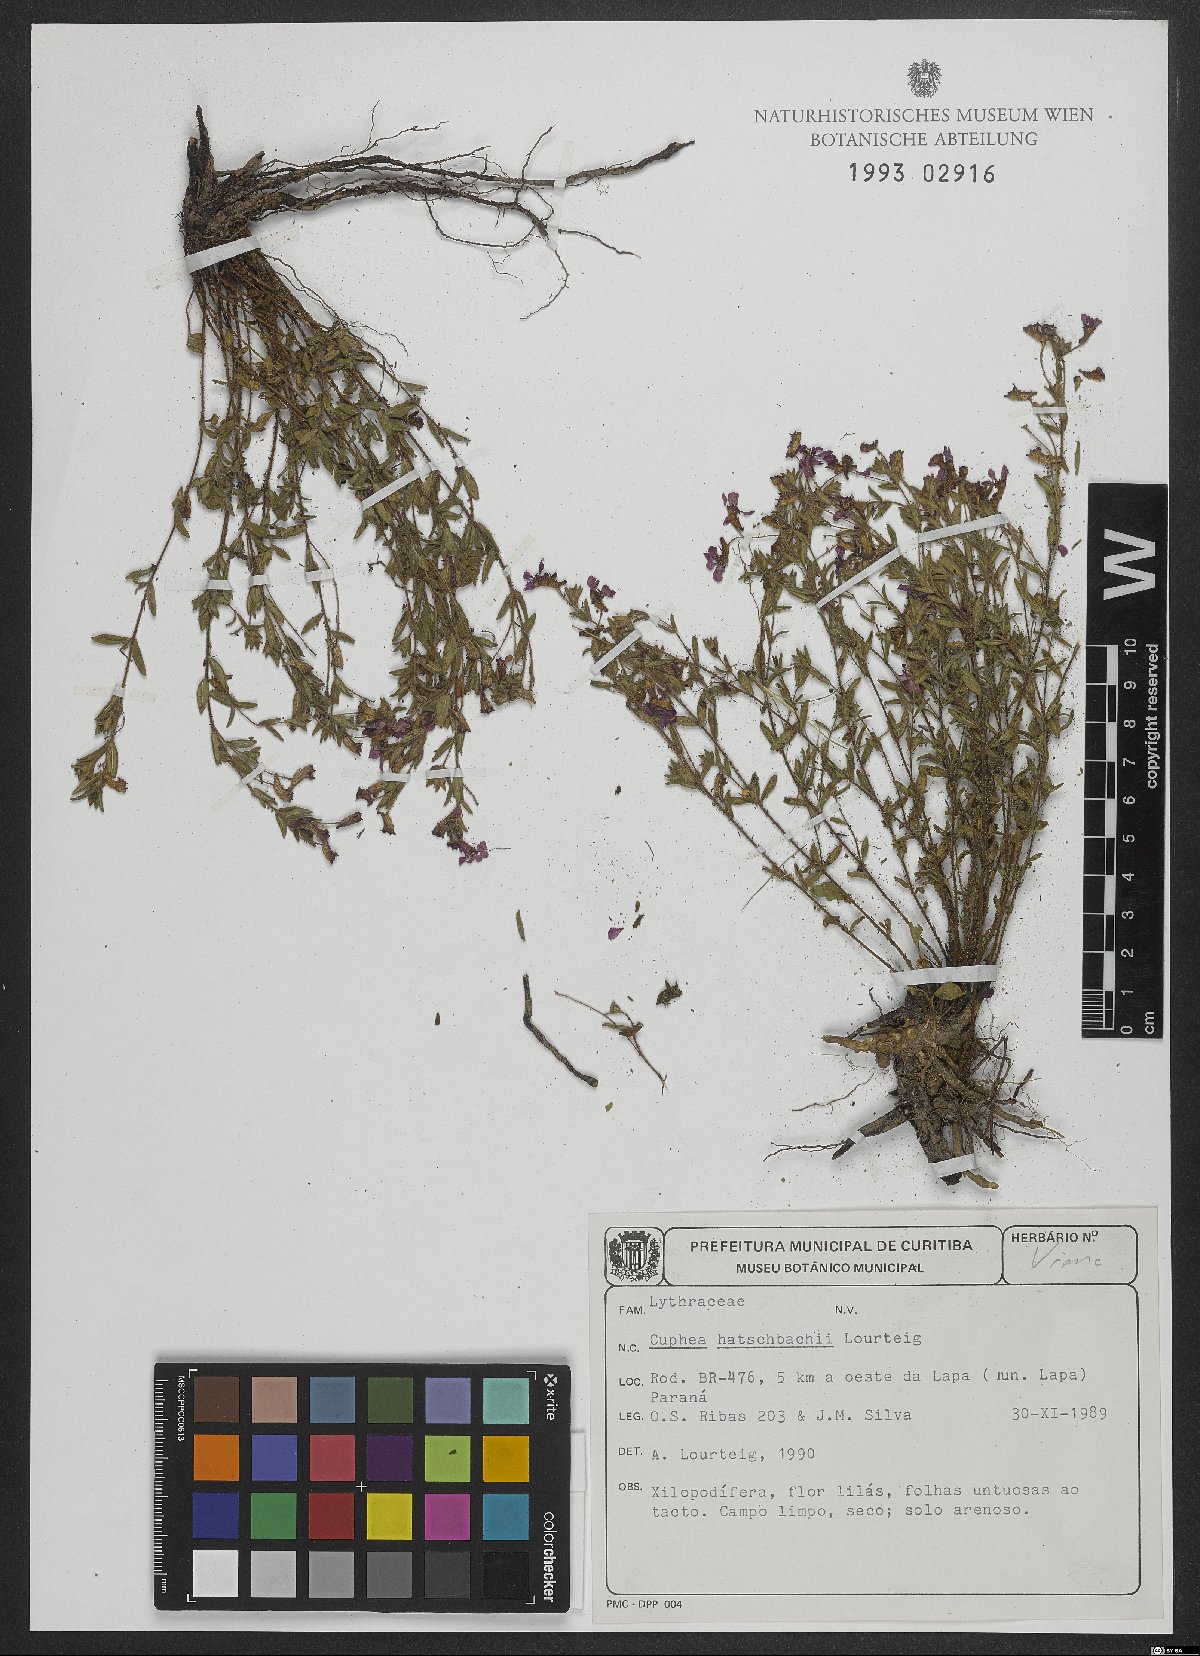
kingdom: Plantae
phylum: Tracheophyta
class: Magnoliopsida
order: Myrtales
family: Lythraceae
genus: Cuphea
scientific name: Cuphea hatschbachii
